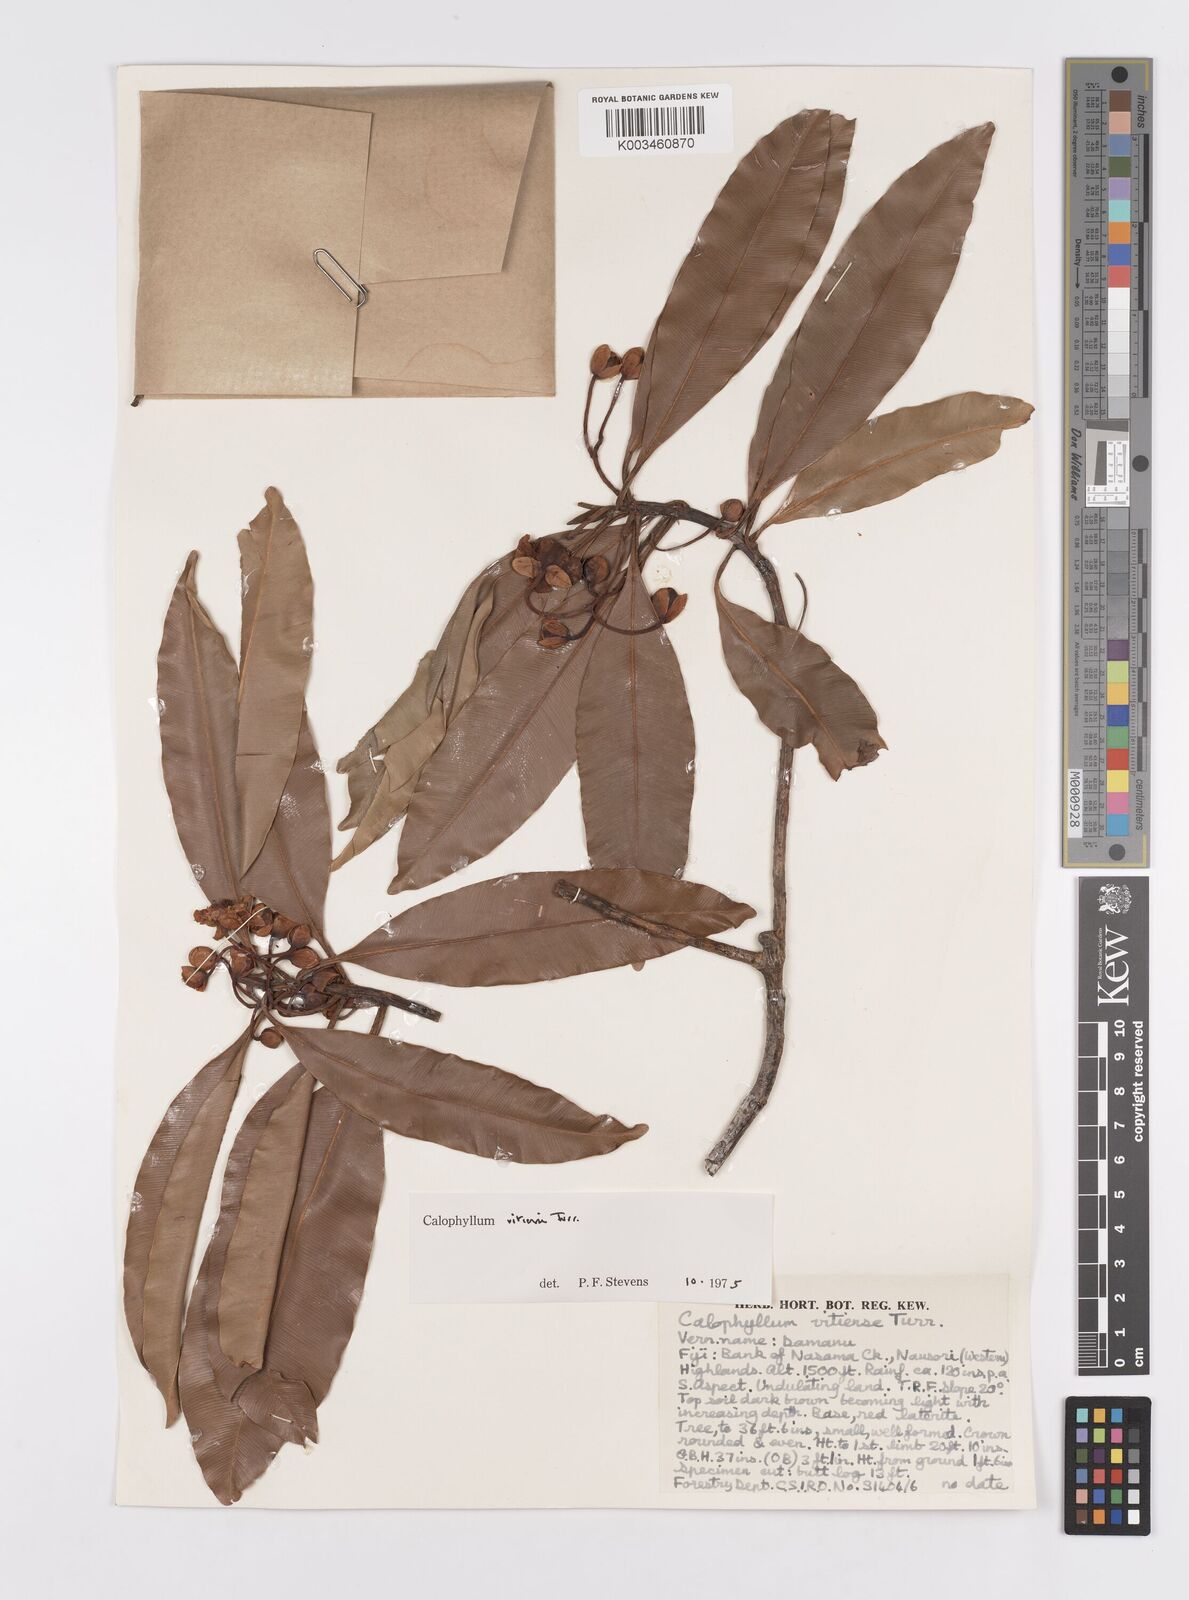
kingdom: Plantae
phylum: Tracheophyta
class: Magnoliopsida
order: Malpighiales
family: Calophyllaceae
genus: Calophyllum
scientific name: Calophyllum vitiense
